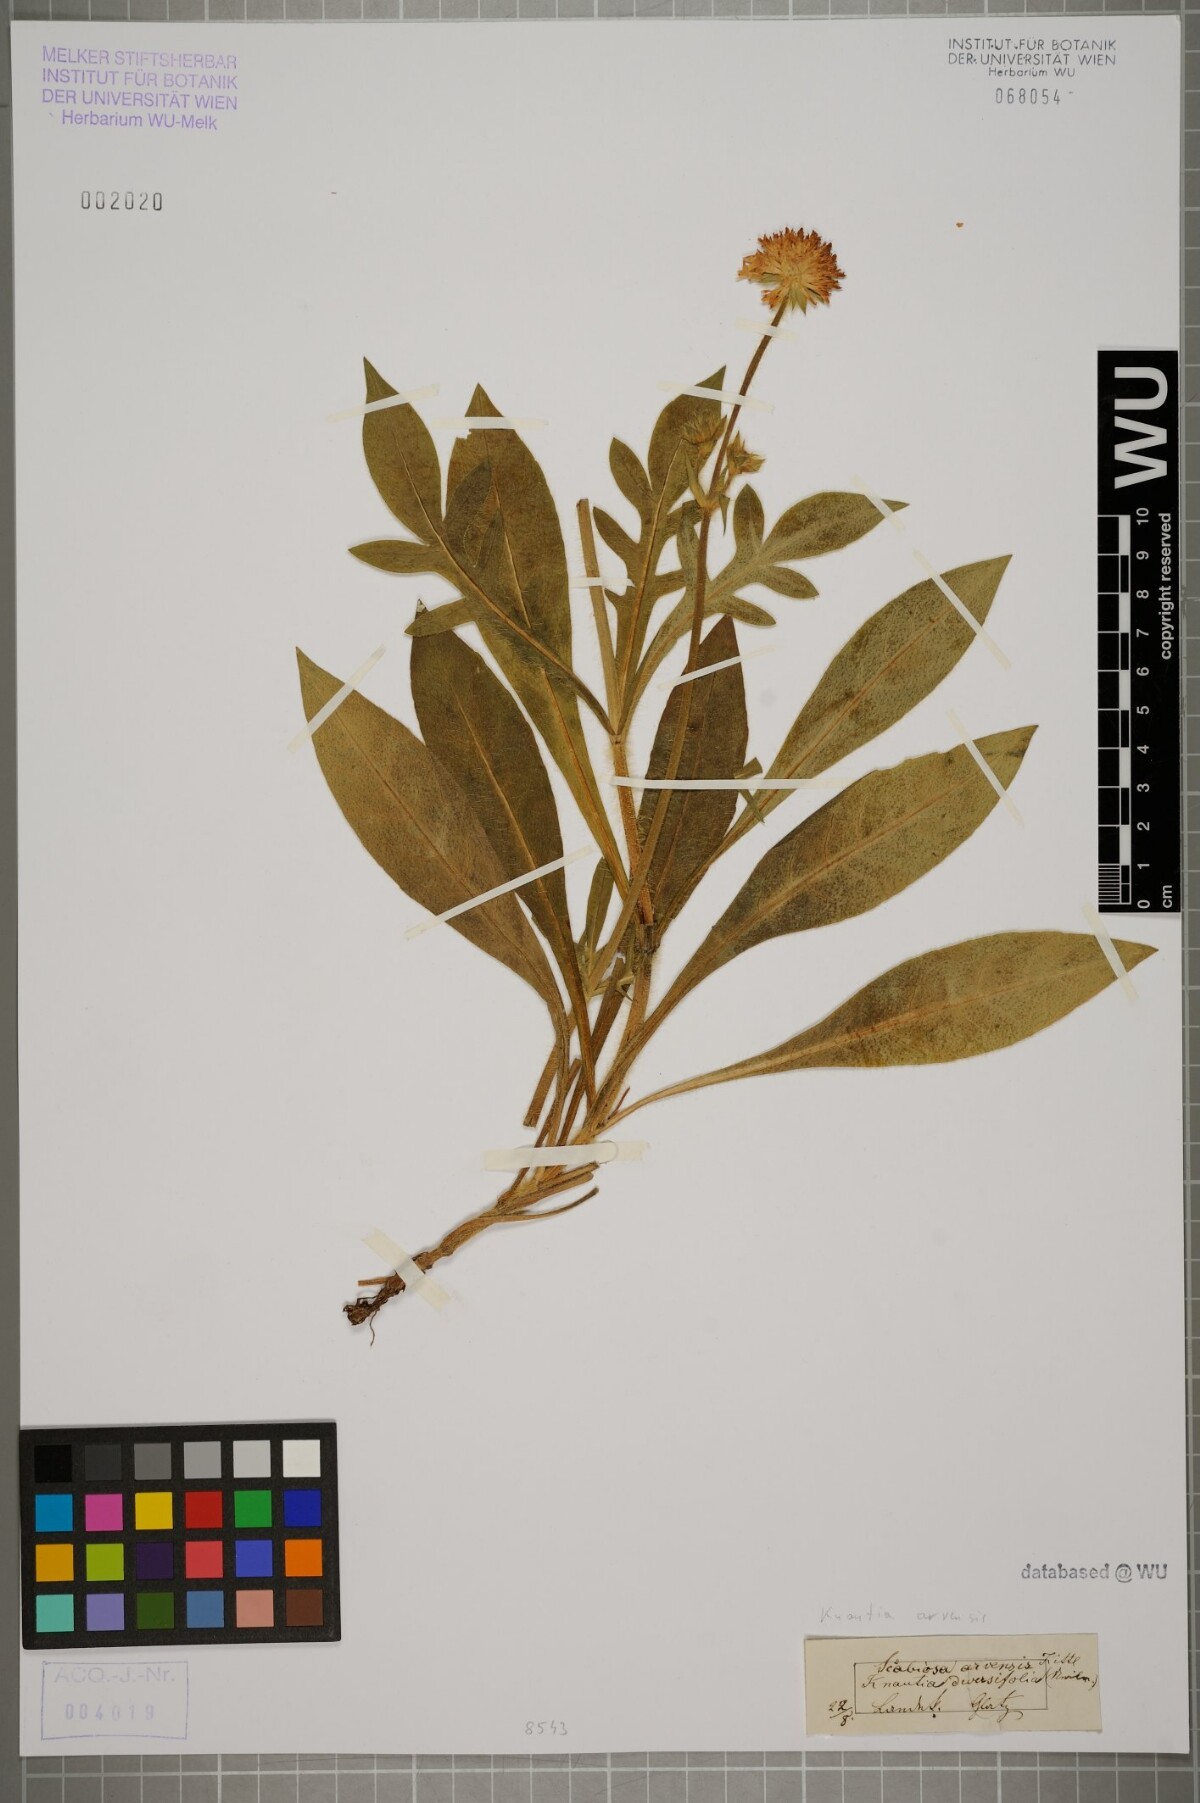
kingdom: Plantae
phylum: Tracheophyta
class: Magnoliopsida
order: Dipsacales
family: Caprifoliaceae
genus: Knautia
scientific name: Knautia arvensis
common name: Field scabiosa
